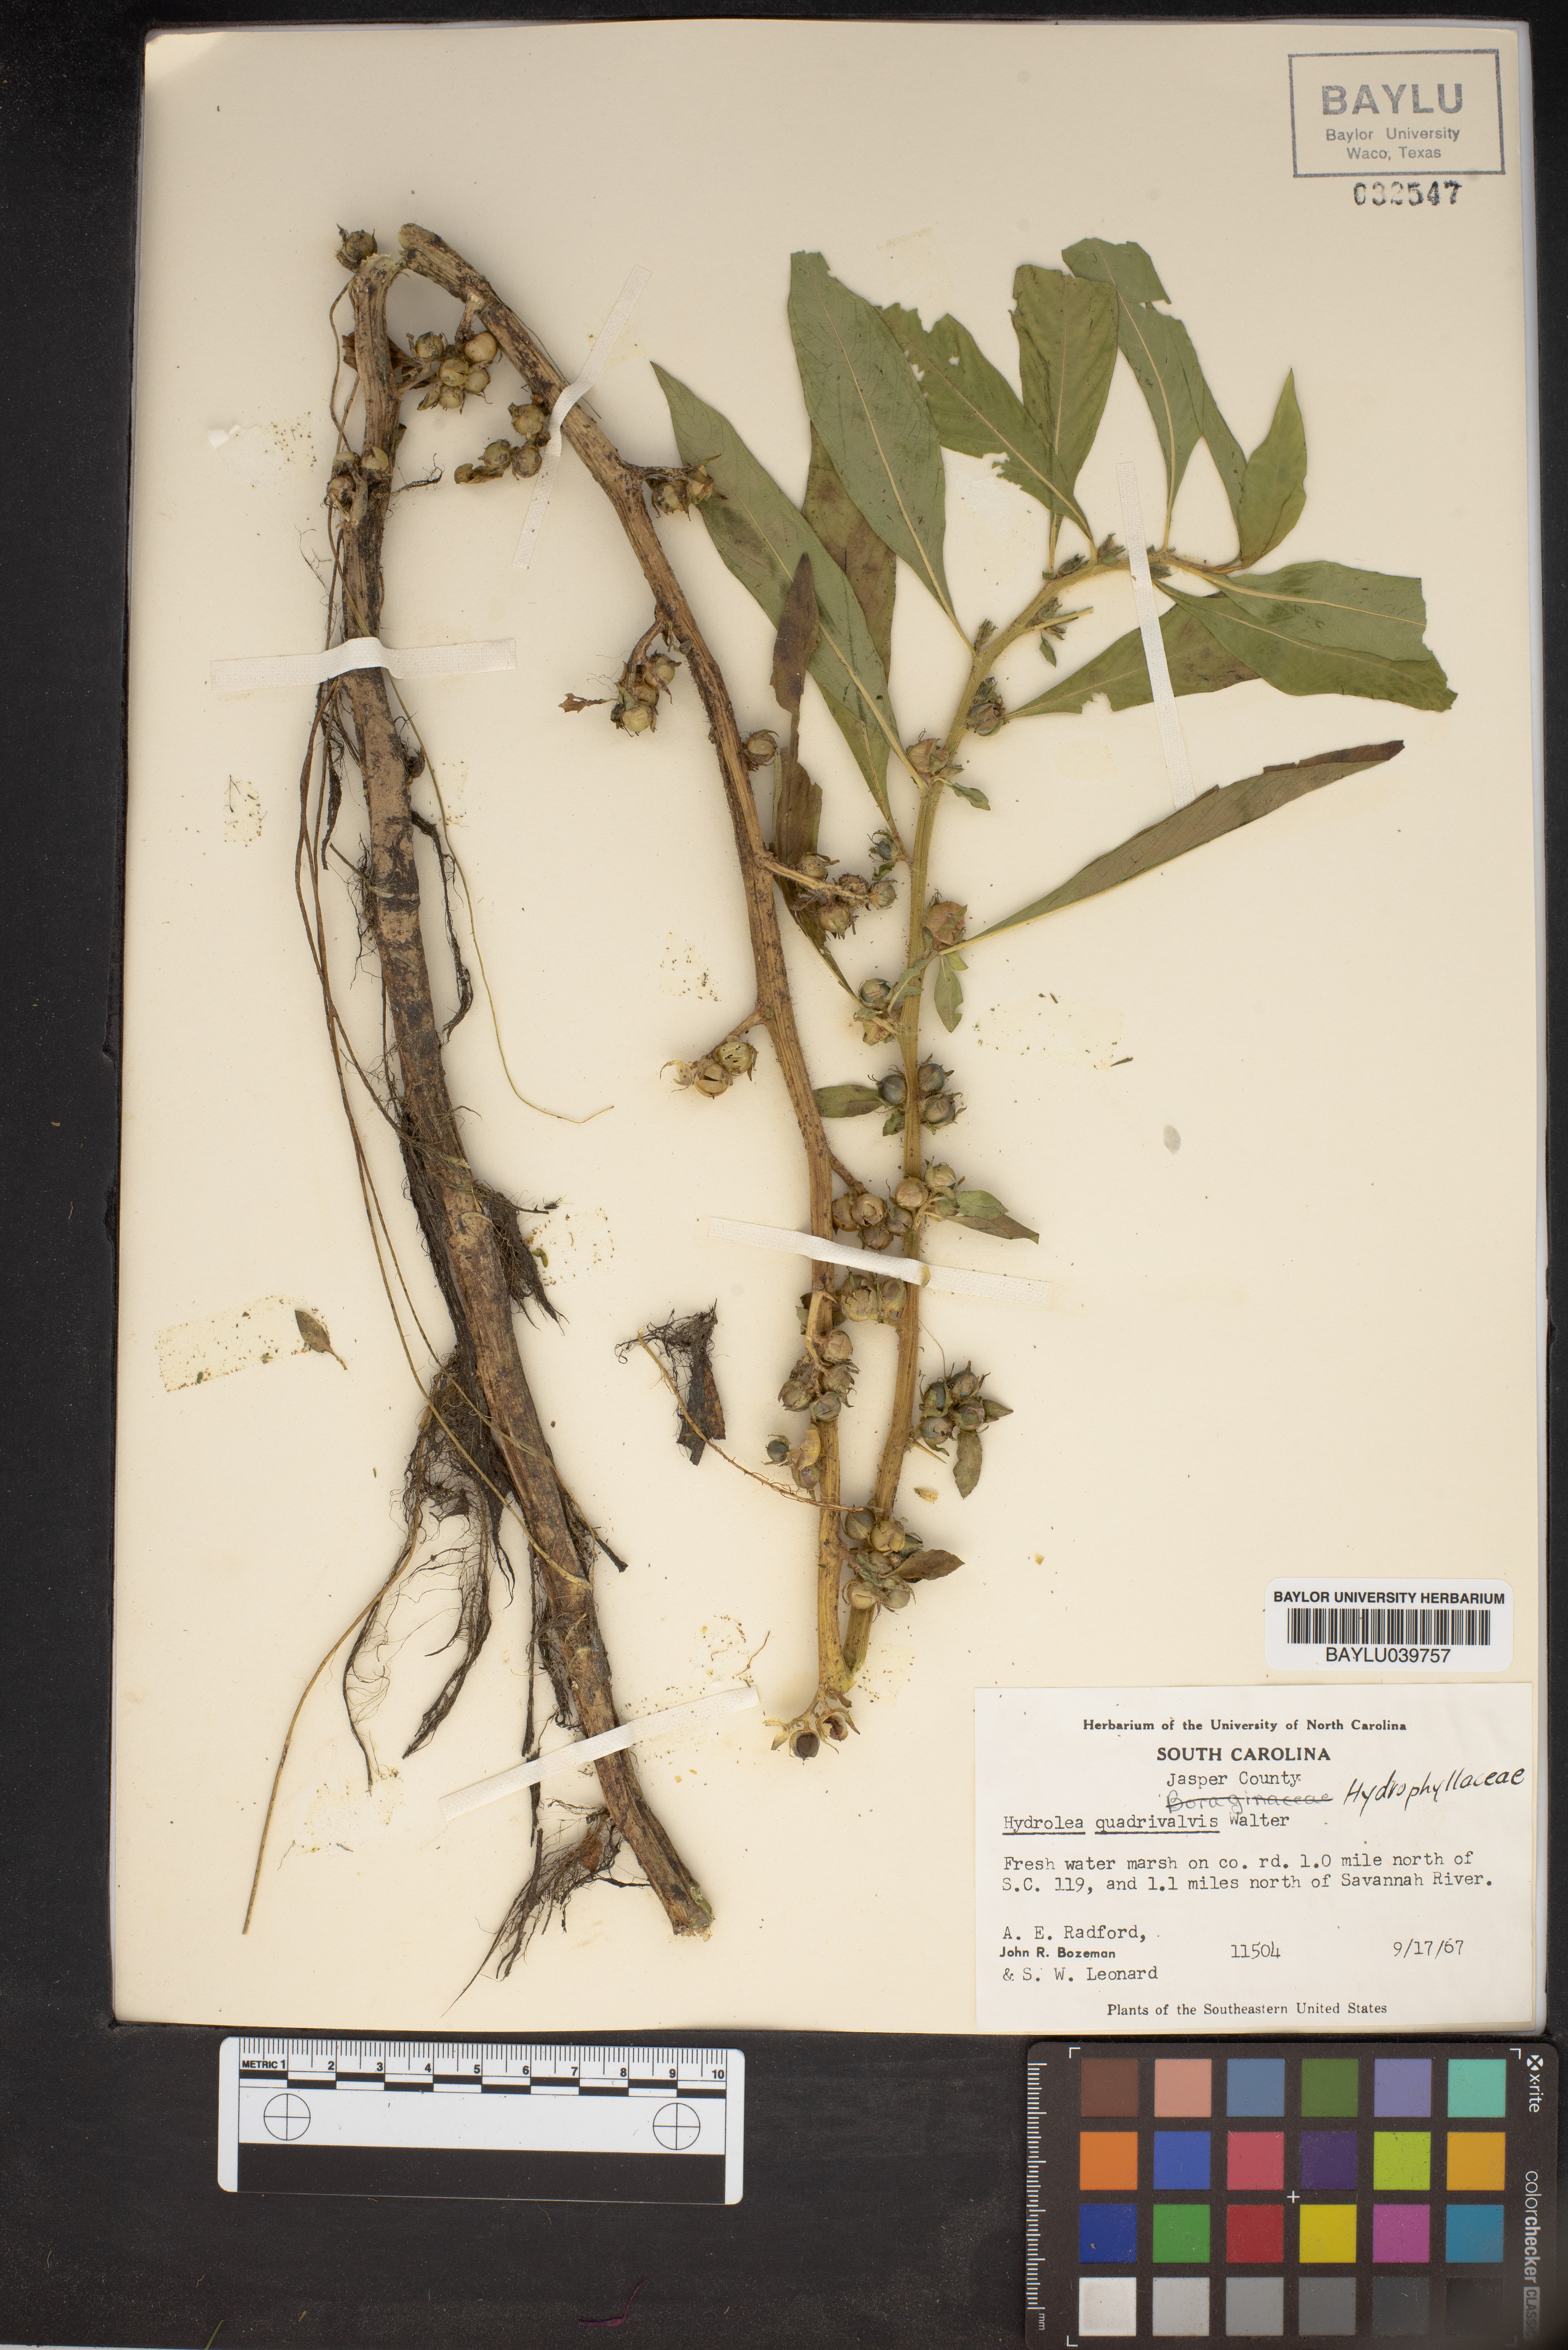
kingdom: Plantae
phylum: Tracheophyta
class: Magnoliopsida
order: Solanales
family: Hydroleaceae
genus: Hydrolea
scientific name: Hydrolea quadrivalvis
